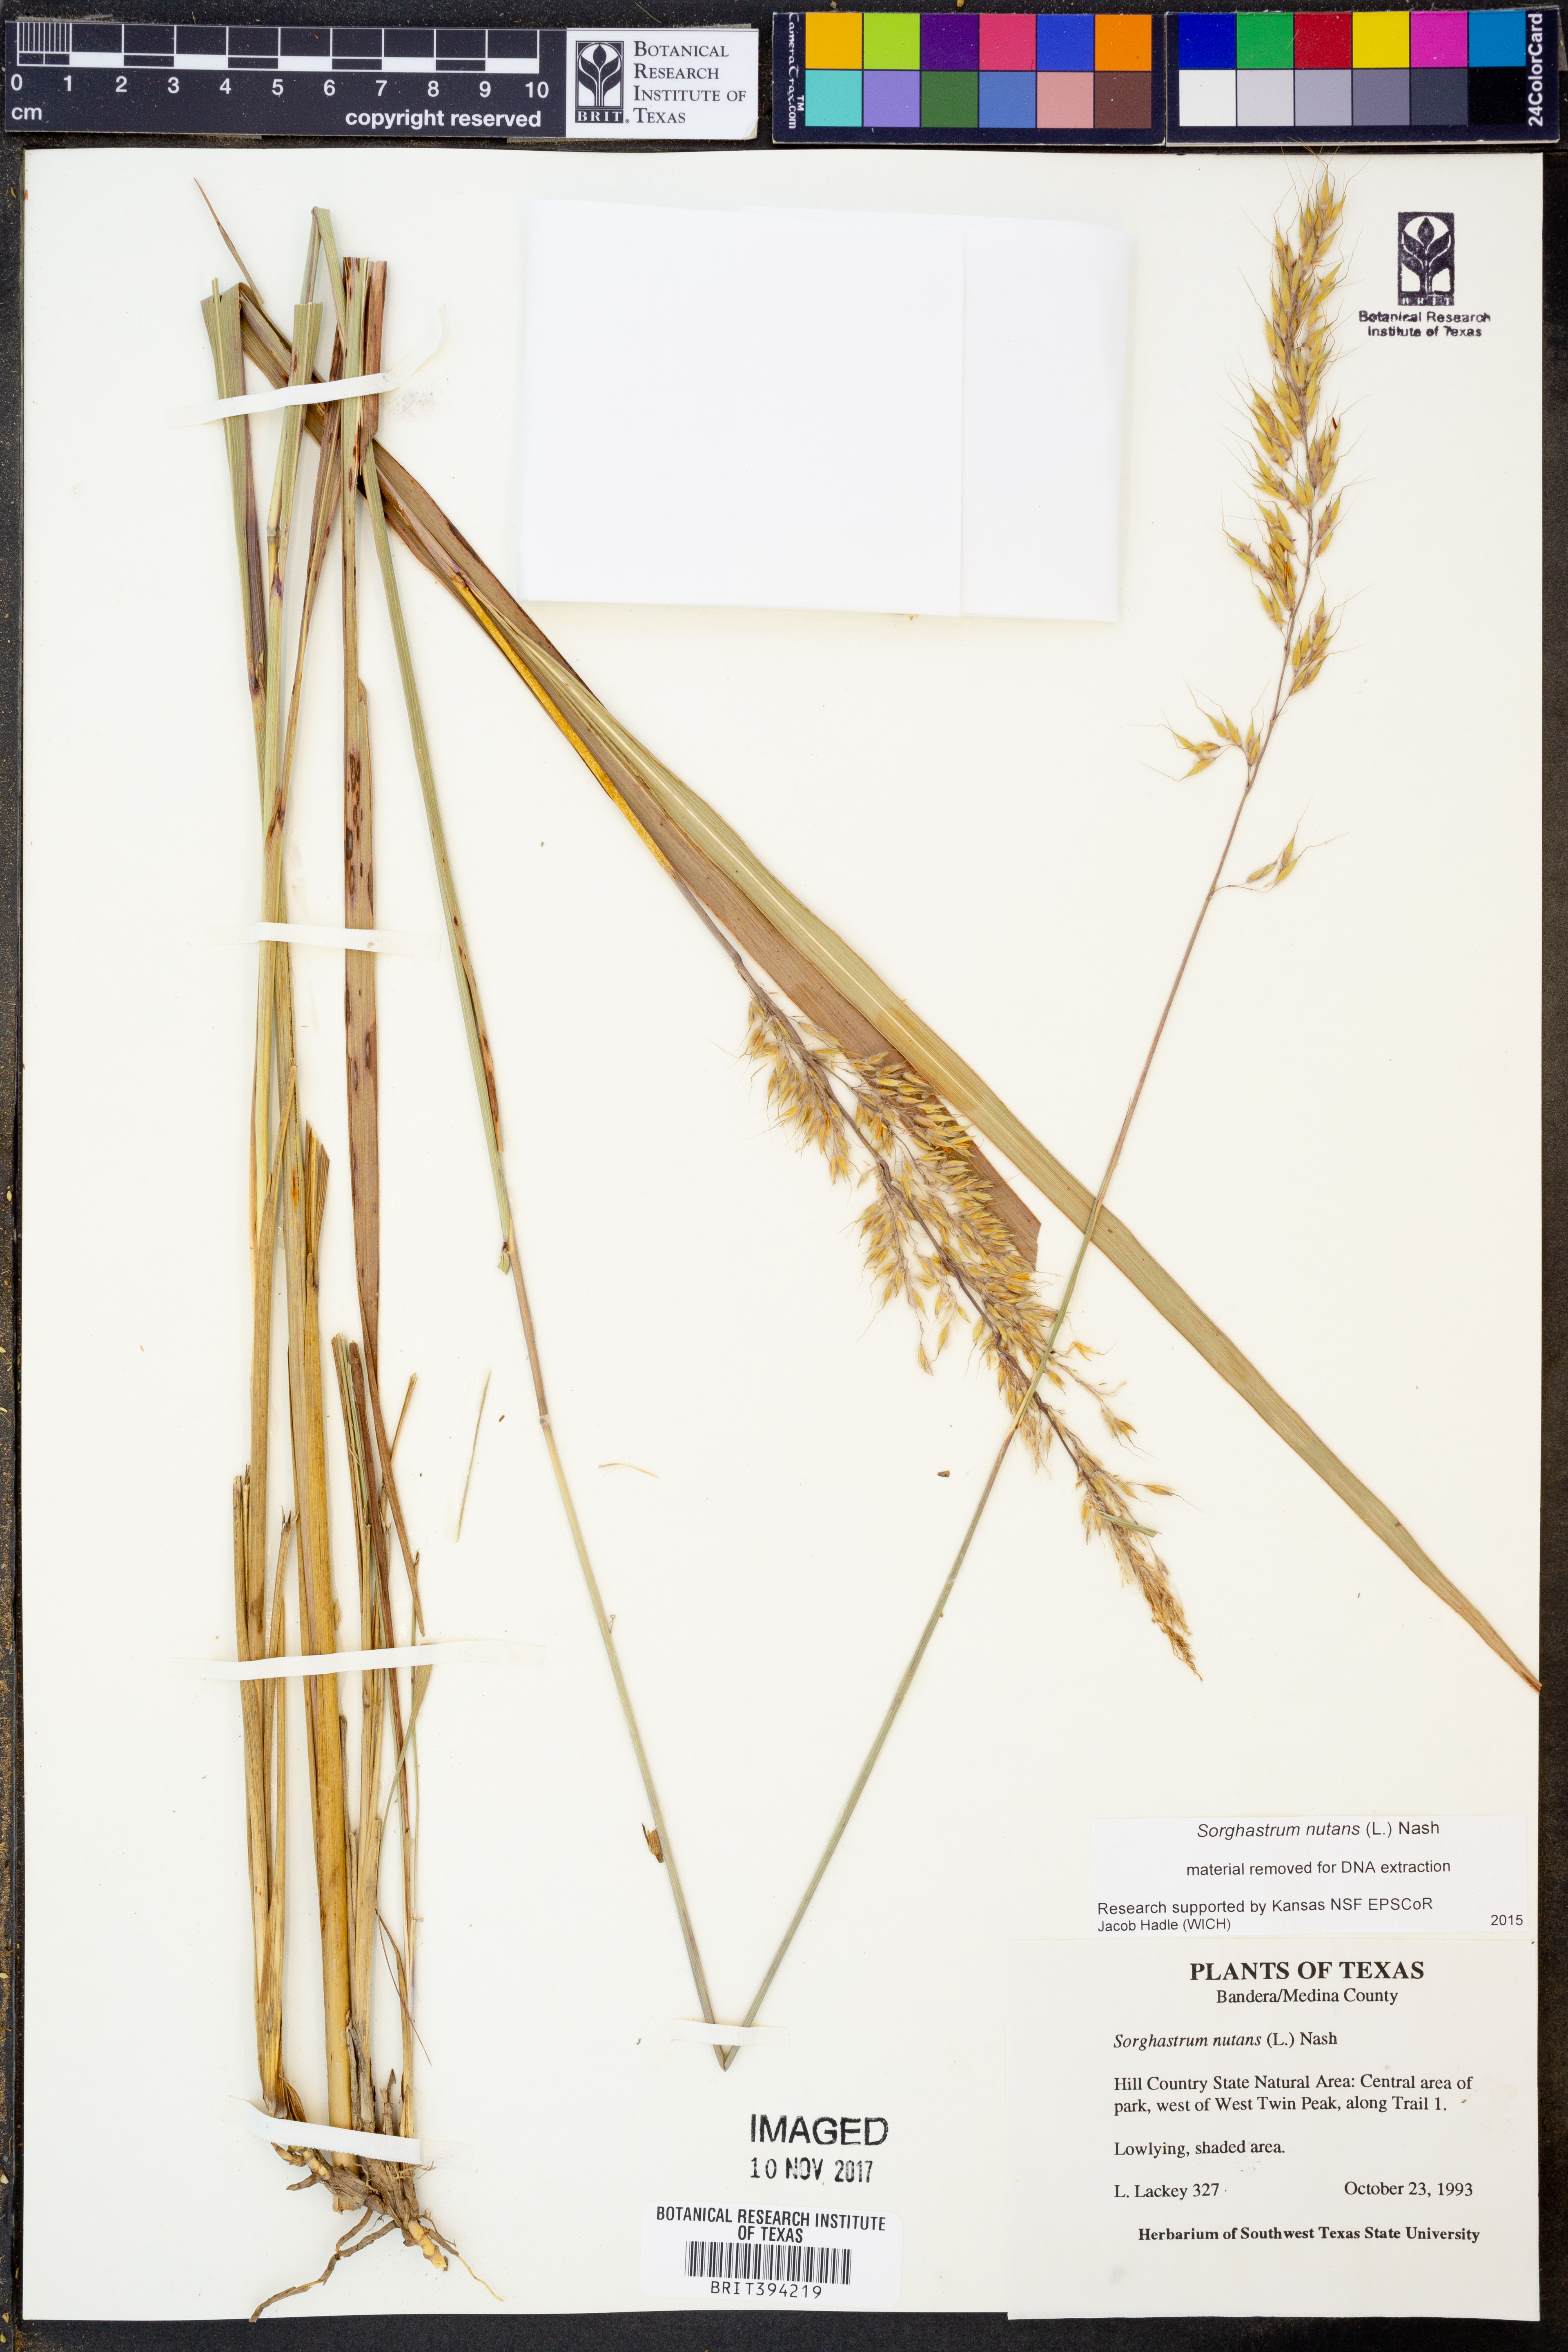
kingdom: Plantae
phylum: Tracheophyta
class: Liliopsida
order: Poales
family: Poaceae
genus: Sorghastrum
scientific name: Sorghastrum nutans
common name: Indian grass
